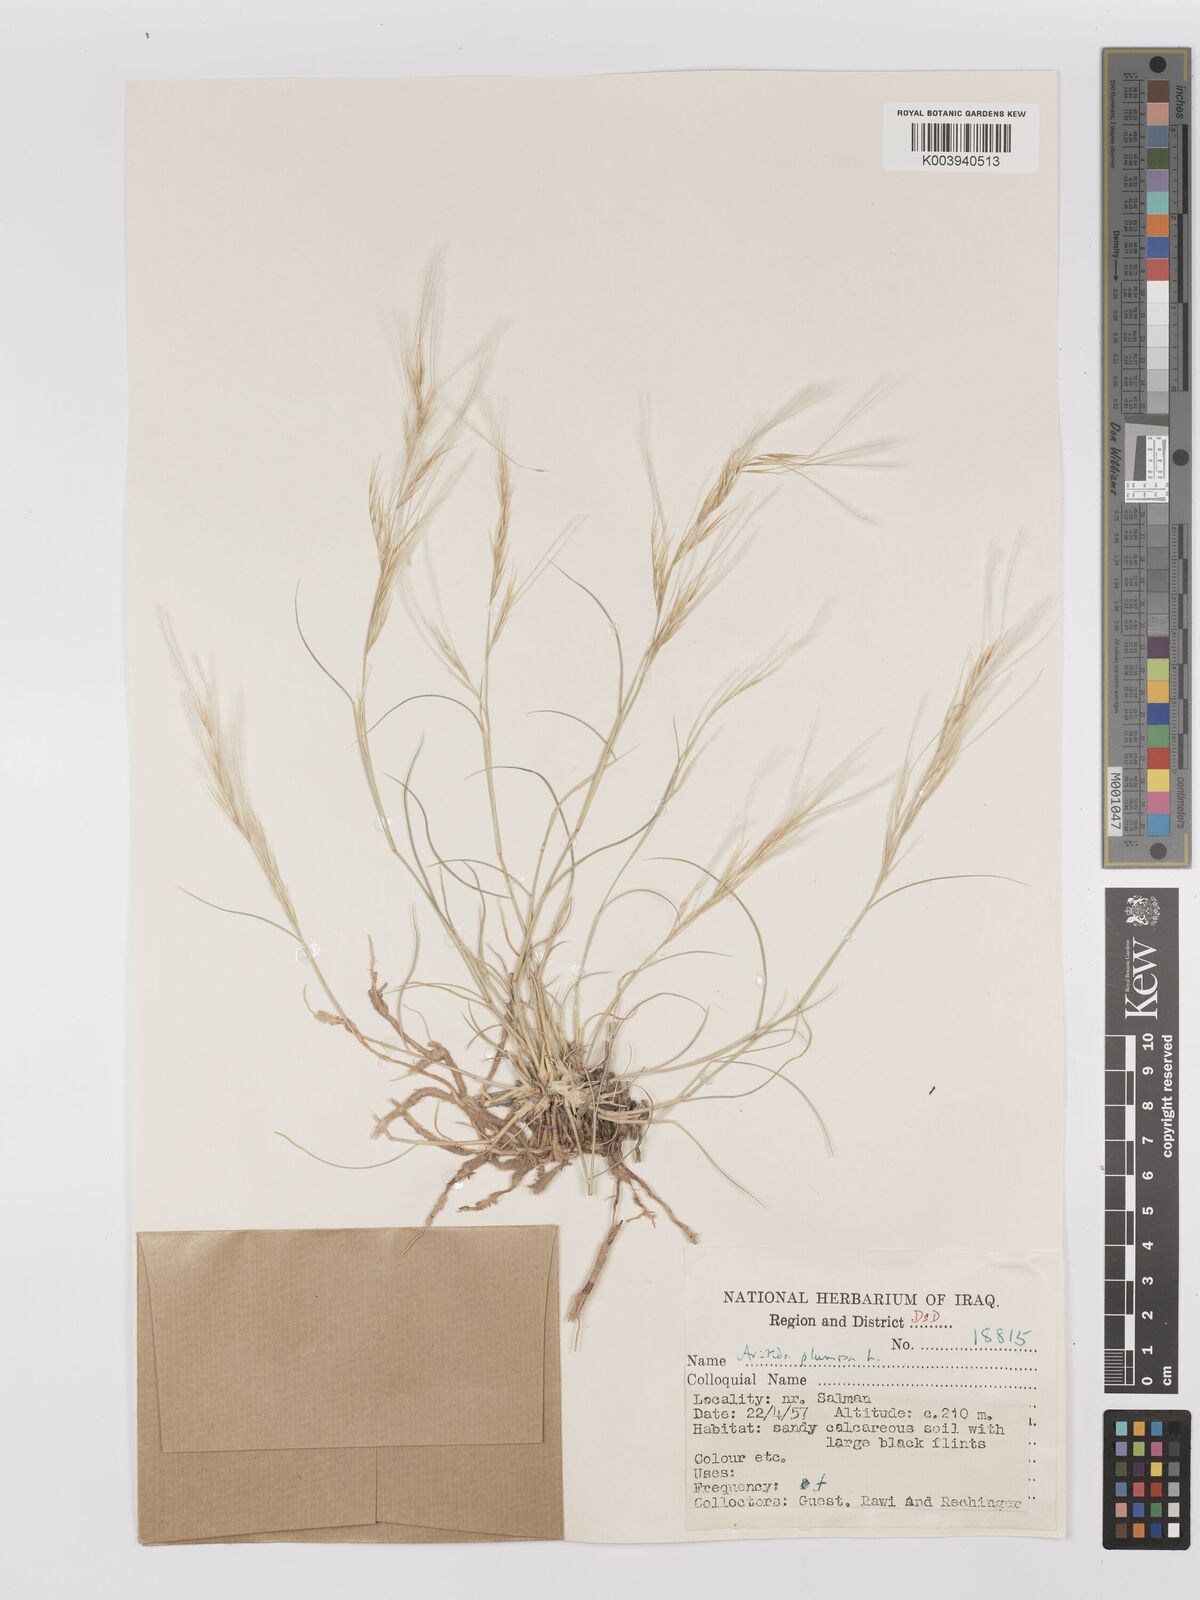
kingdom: Plantae
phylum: Tracheophyta
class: Liliopsida
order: Poales
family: Poaceae
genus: Stipagrostis
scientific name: Stipagrostis plumosa
